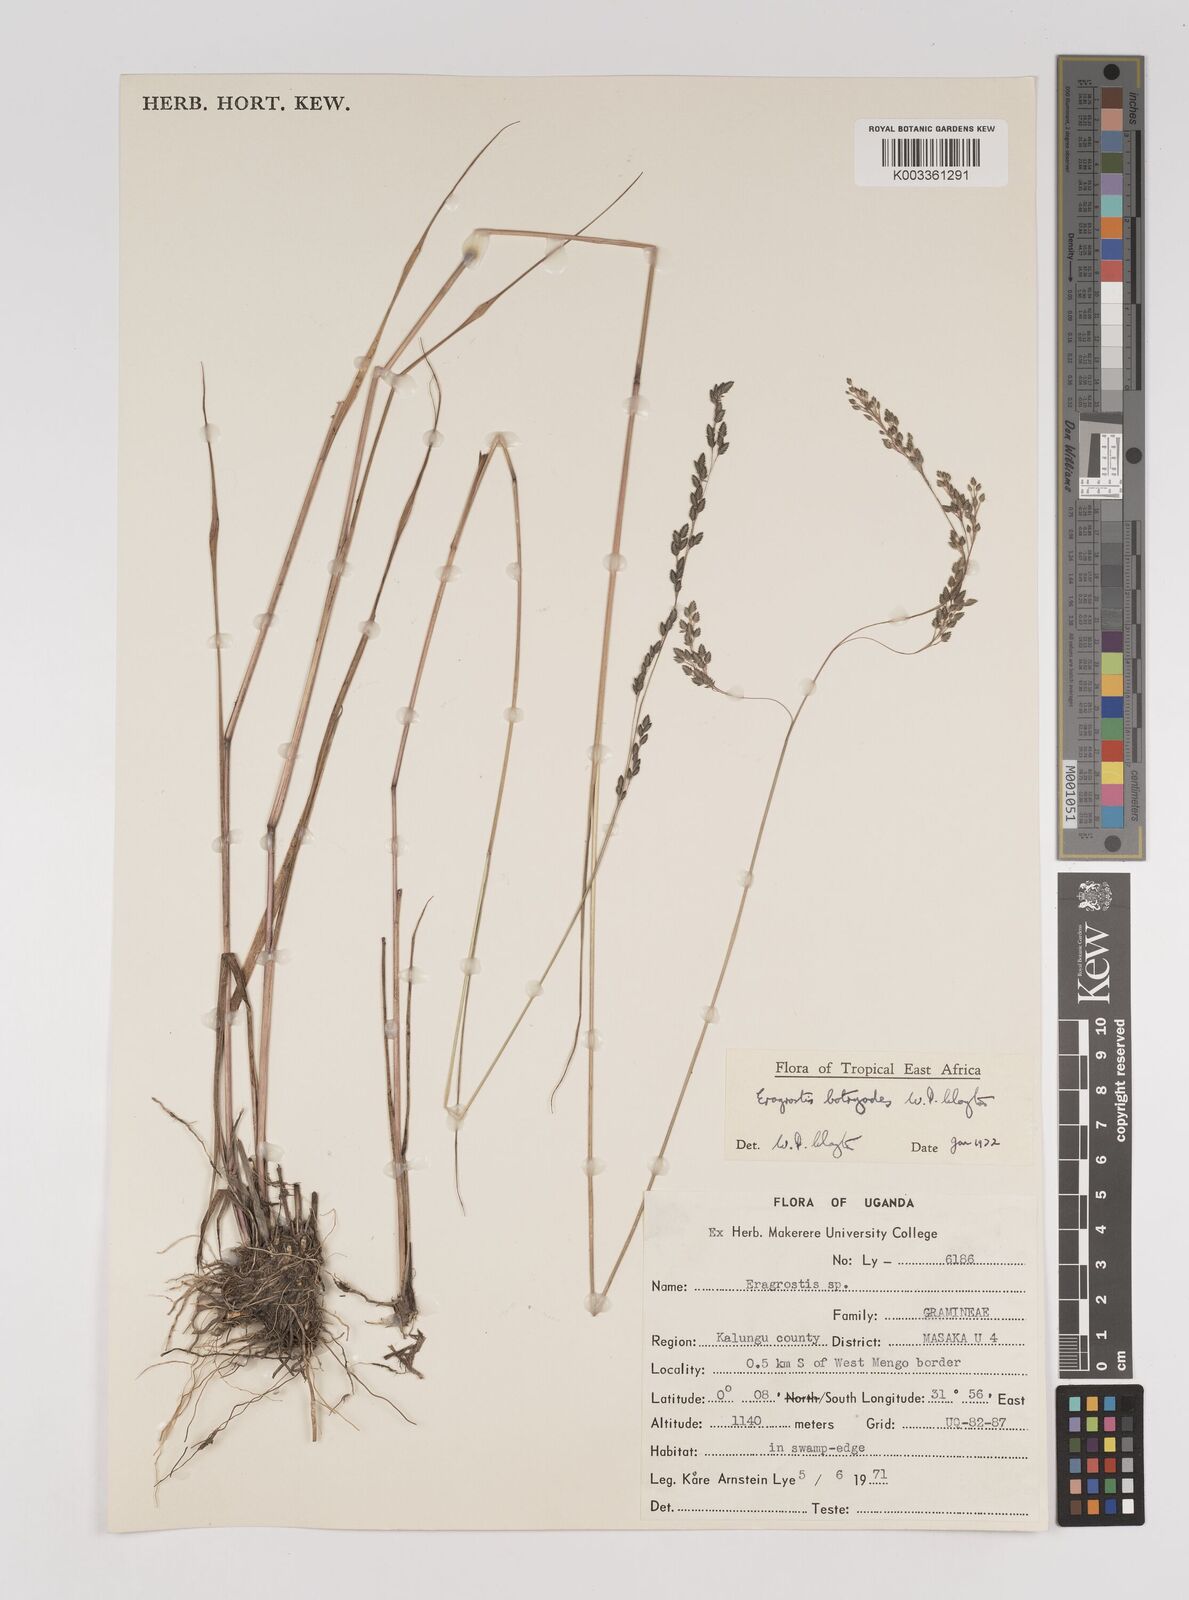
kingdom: Plantae
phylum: Tracheophyta
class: Liliopsida
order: Poales
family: Poaceae
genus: Eragrostis
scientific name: Eragrostis botryodes
